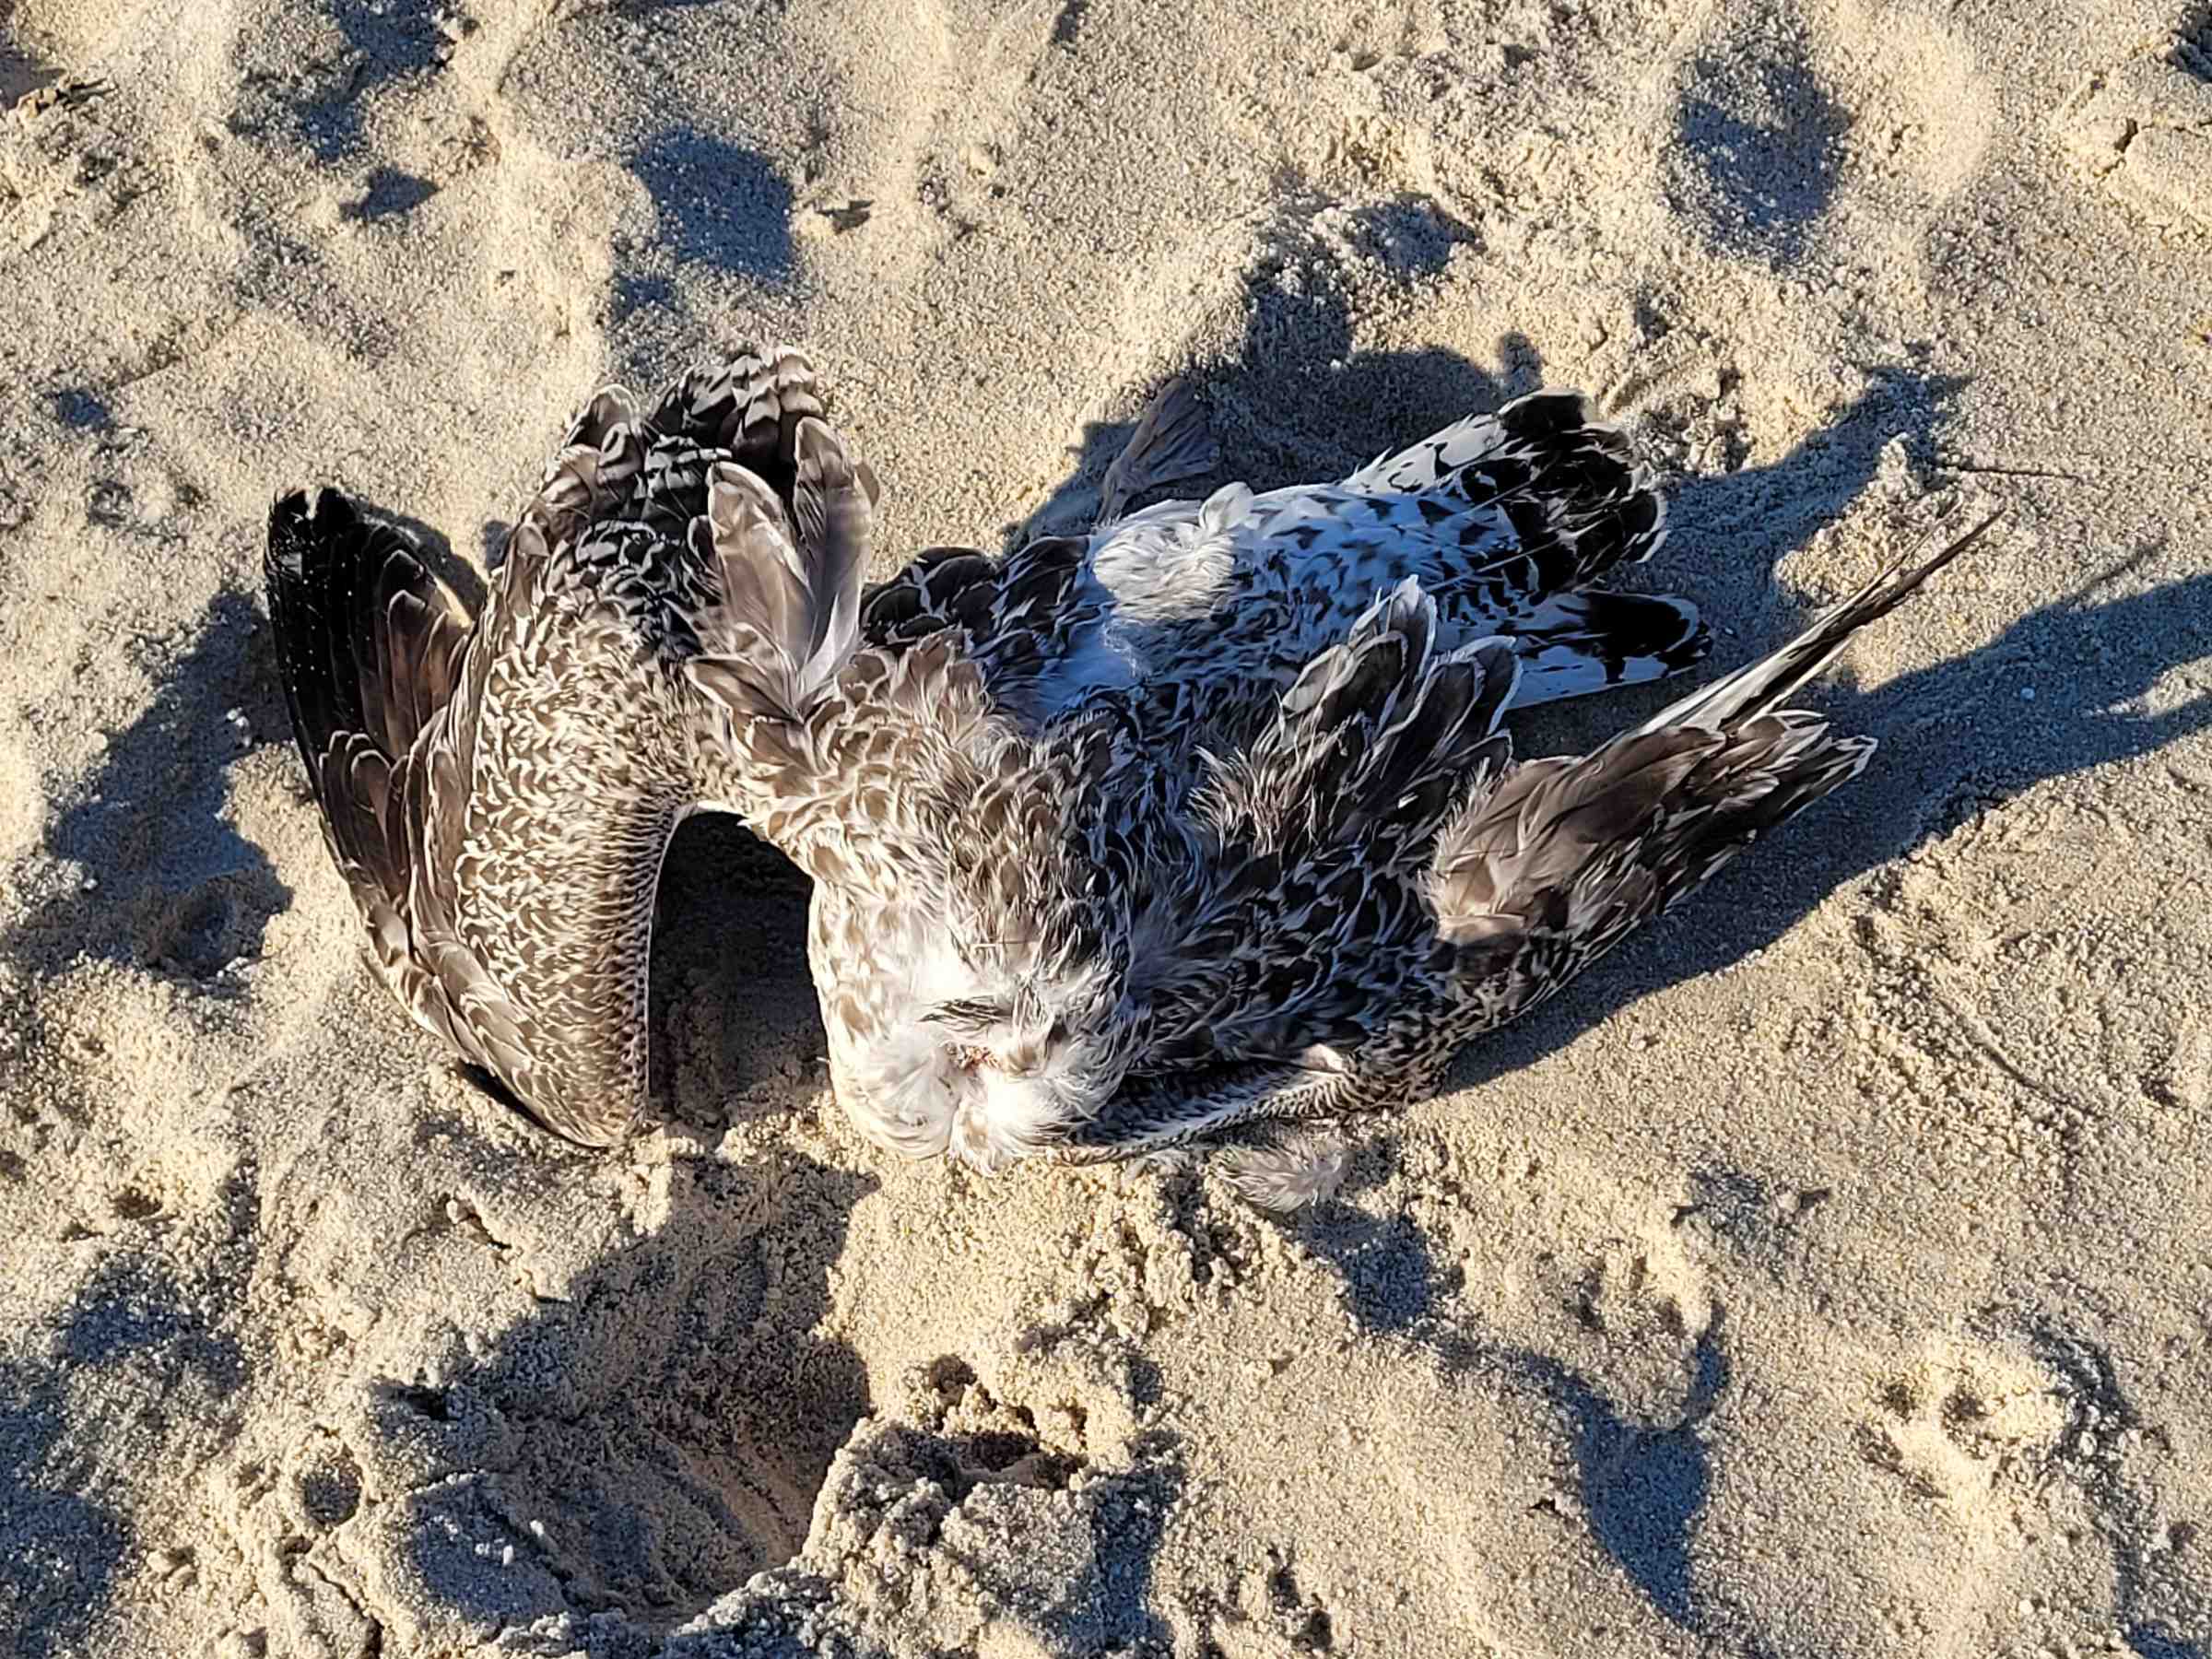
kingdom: Animalia
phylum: Chordata
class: Aves
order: Charadriiformes
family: Laridae
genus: Larus
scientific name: Larus marinus
